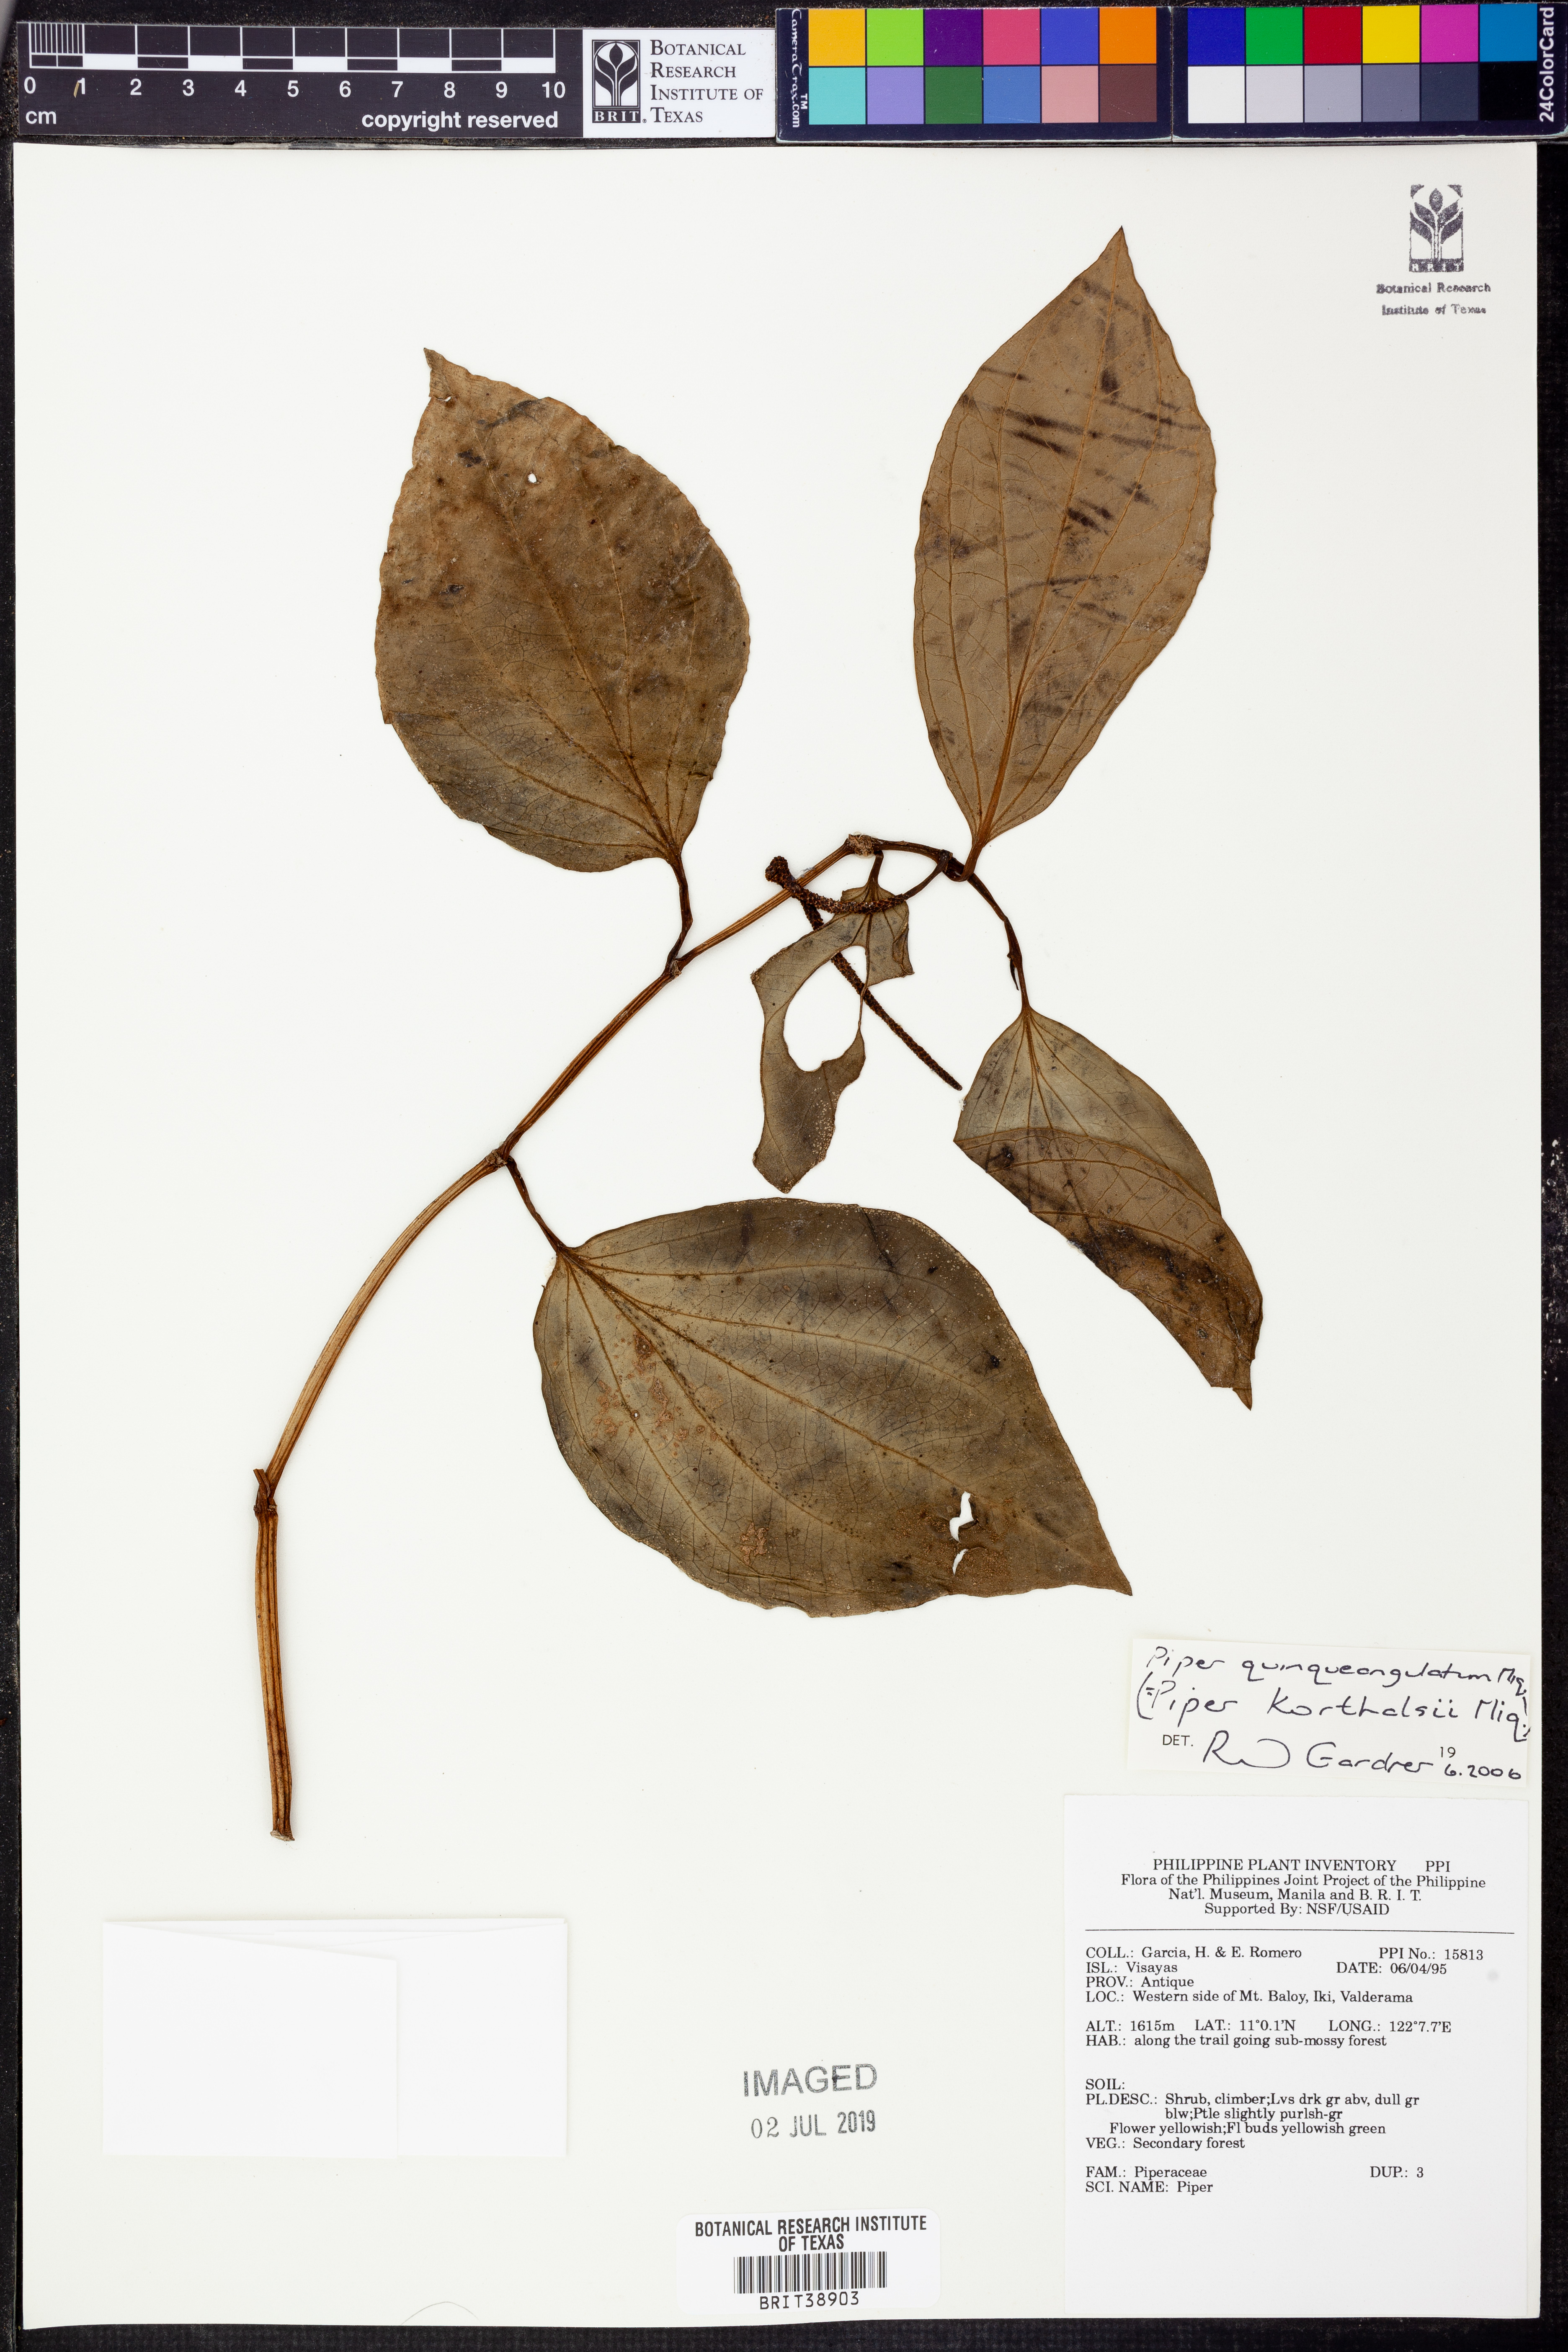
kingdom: Plantae
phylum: Tracheophyta
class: Magnoliopsida
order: Piperales
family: Piperaceae
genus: Piper
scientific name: Piper quinqueangulatum
